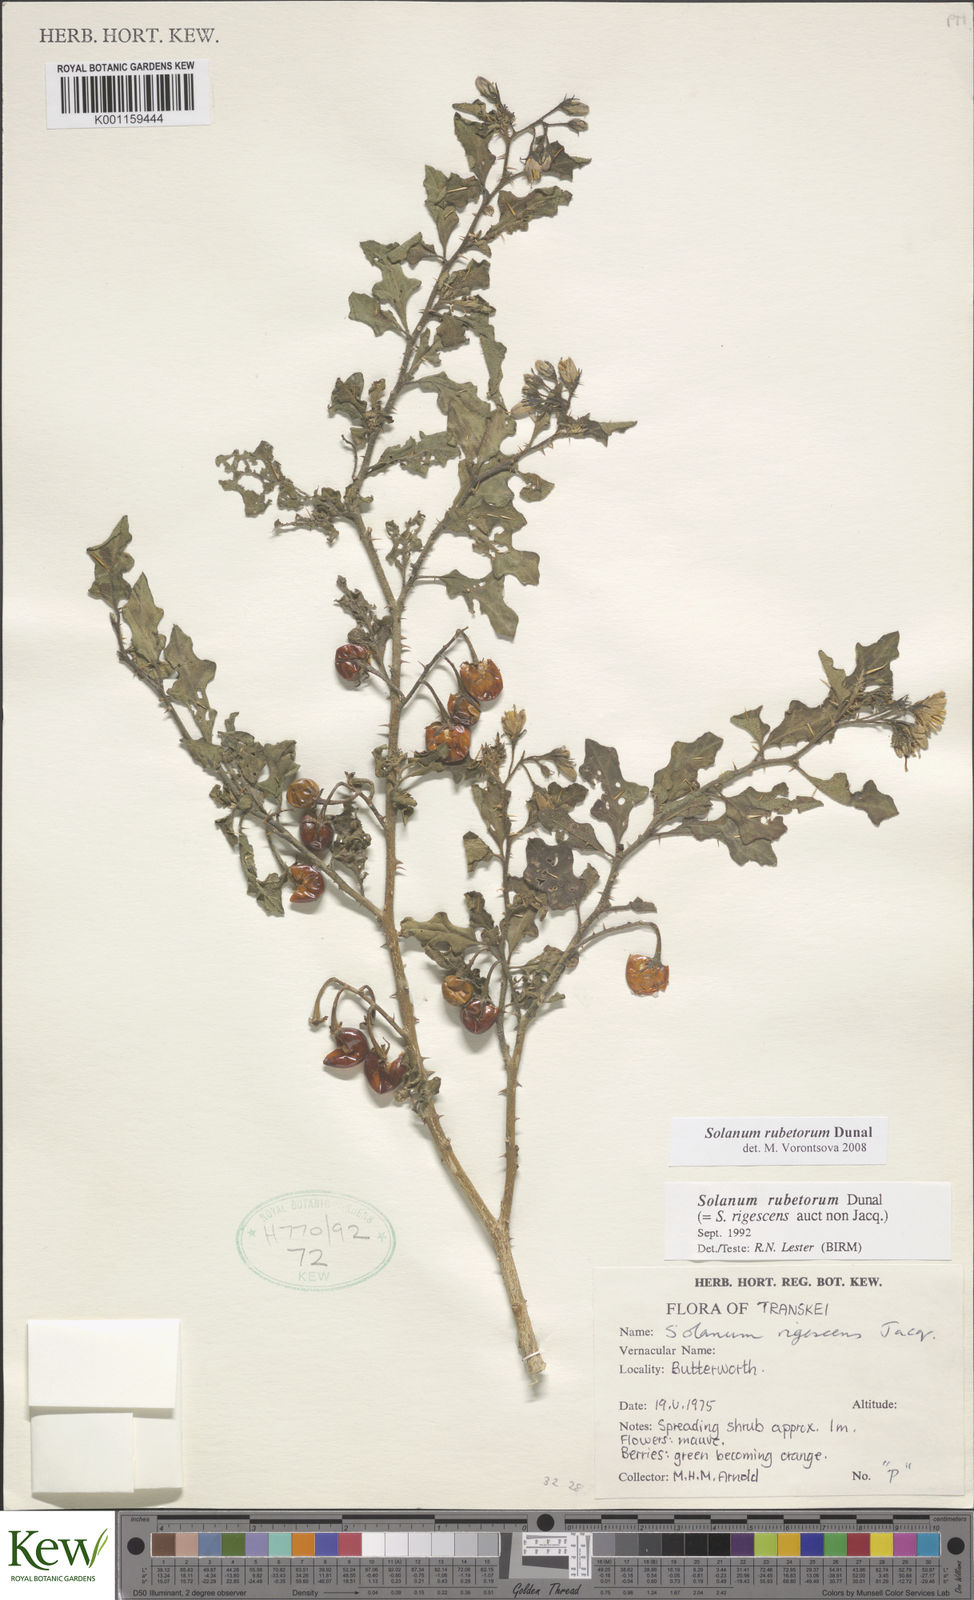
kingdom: Plantae
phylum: Tracheophyta
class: Magnoliopsida
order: Solanales
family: Solanaceae
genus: Solanum
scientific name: Solanum rubetorum
